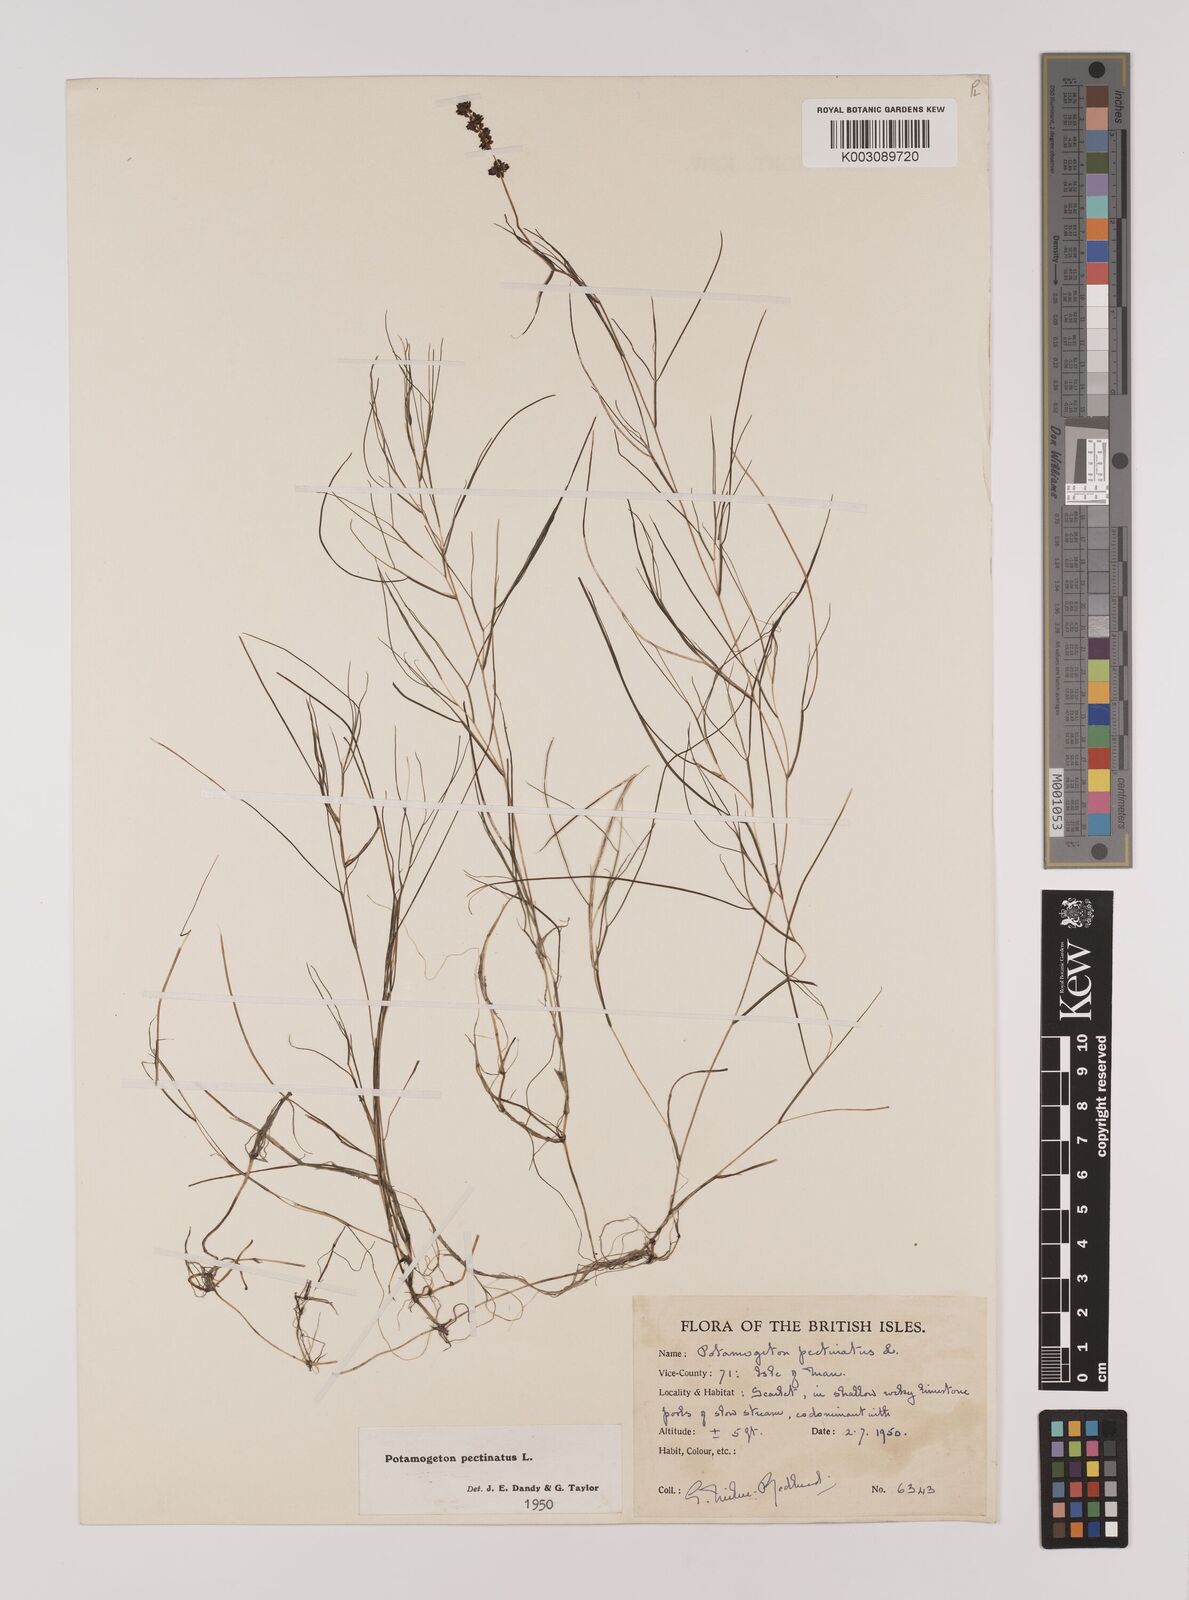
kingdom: Plantae
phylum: Tracheophyta
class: Liliopsida
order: Alismatales
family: Potamogetonaceae
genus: Stuckenia
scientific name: Stuckenia pectinata
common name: Sago pondweed
